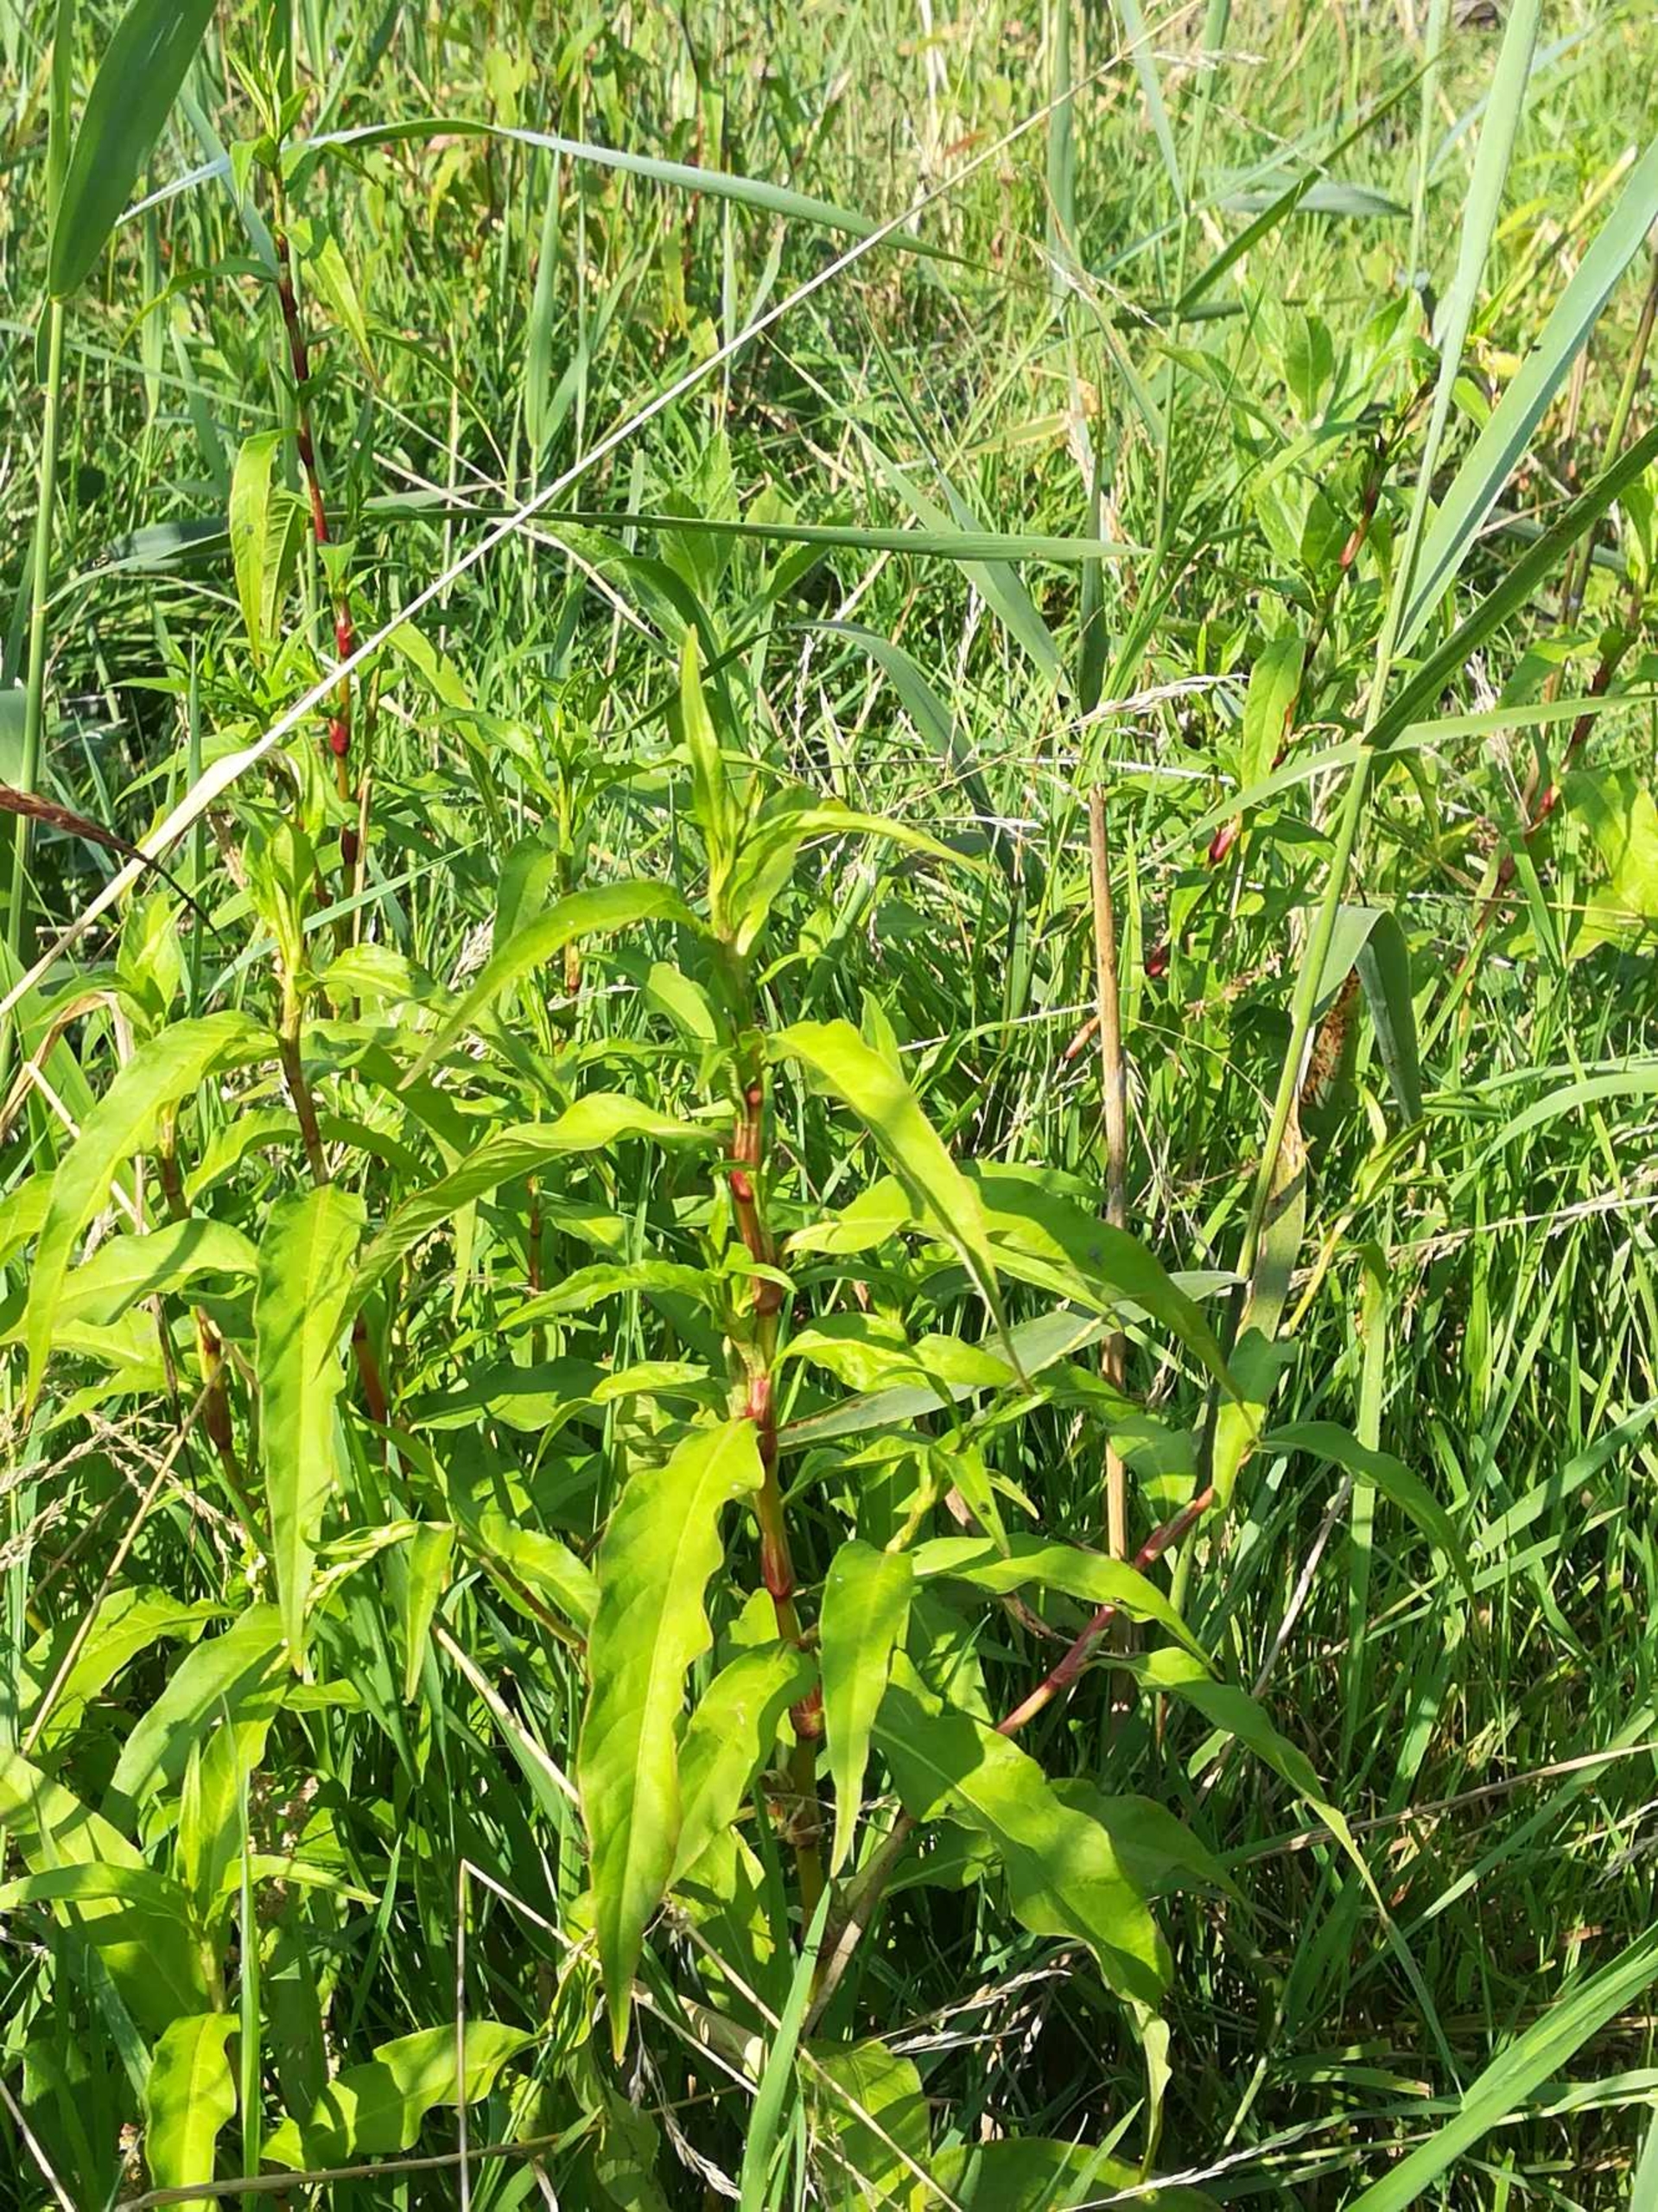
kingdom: Plantae
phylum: Tracheophyta
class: Magnoliopsida
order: Caryophyllales
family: Polygonaceae
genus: Persicaria
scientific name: Persicaria hydropiper
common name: Bidende pileurt
